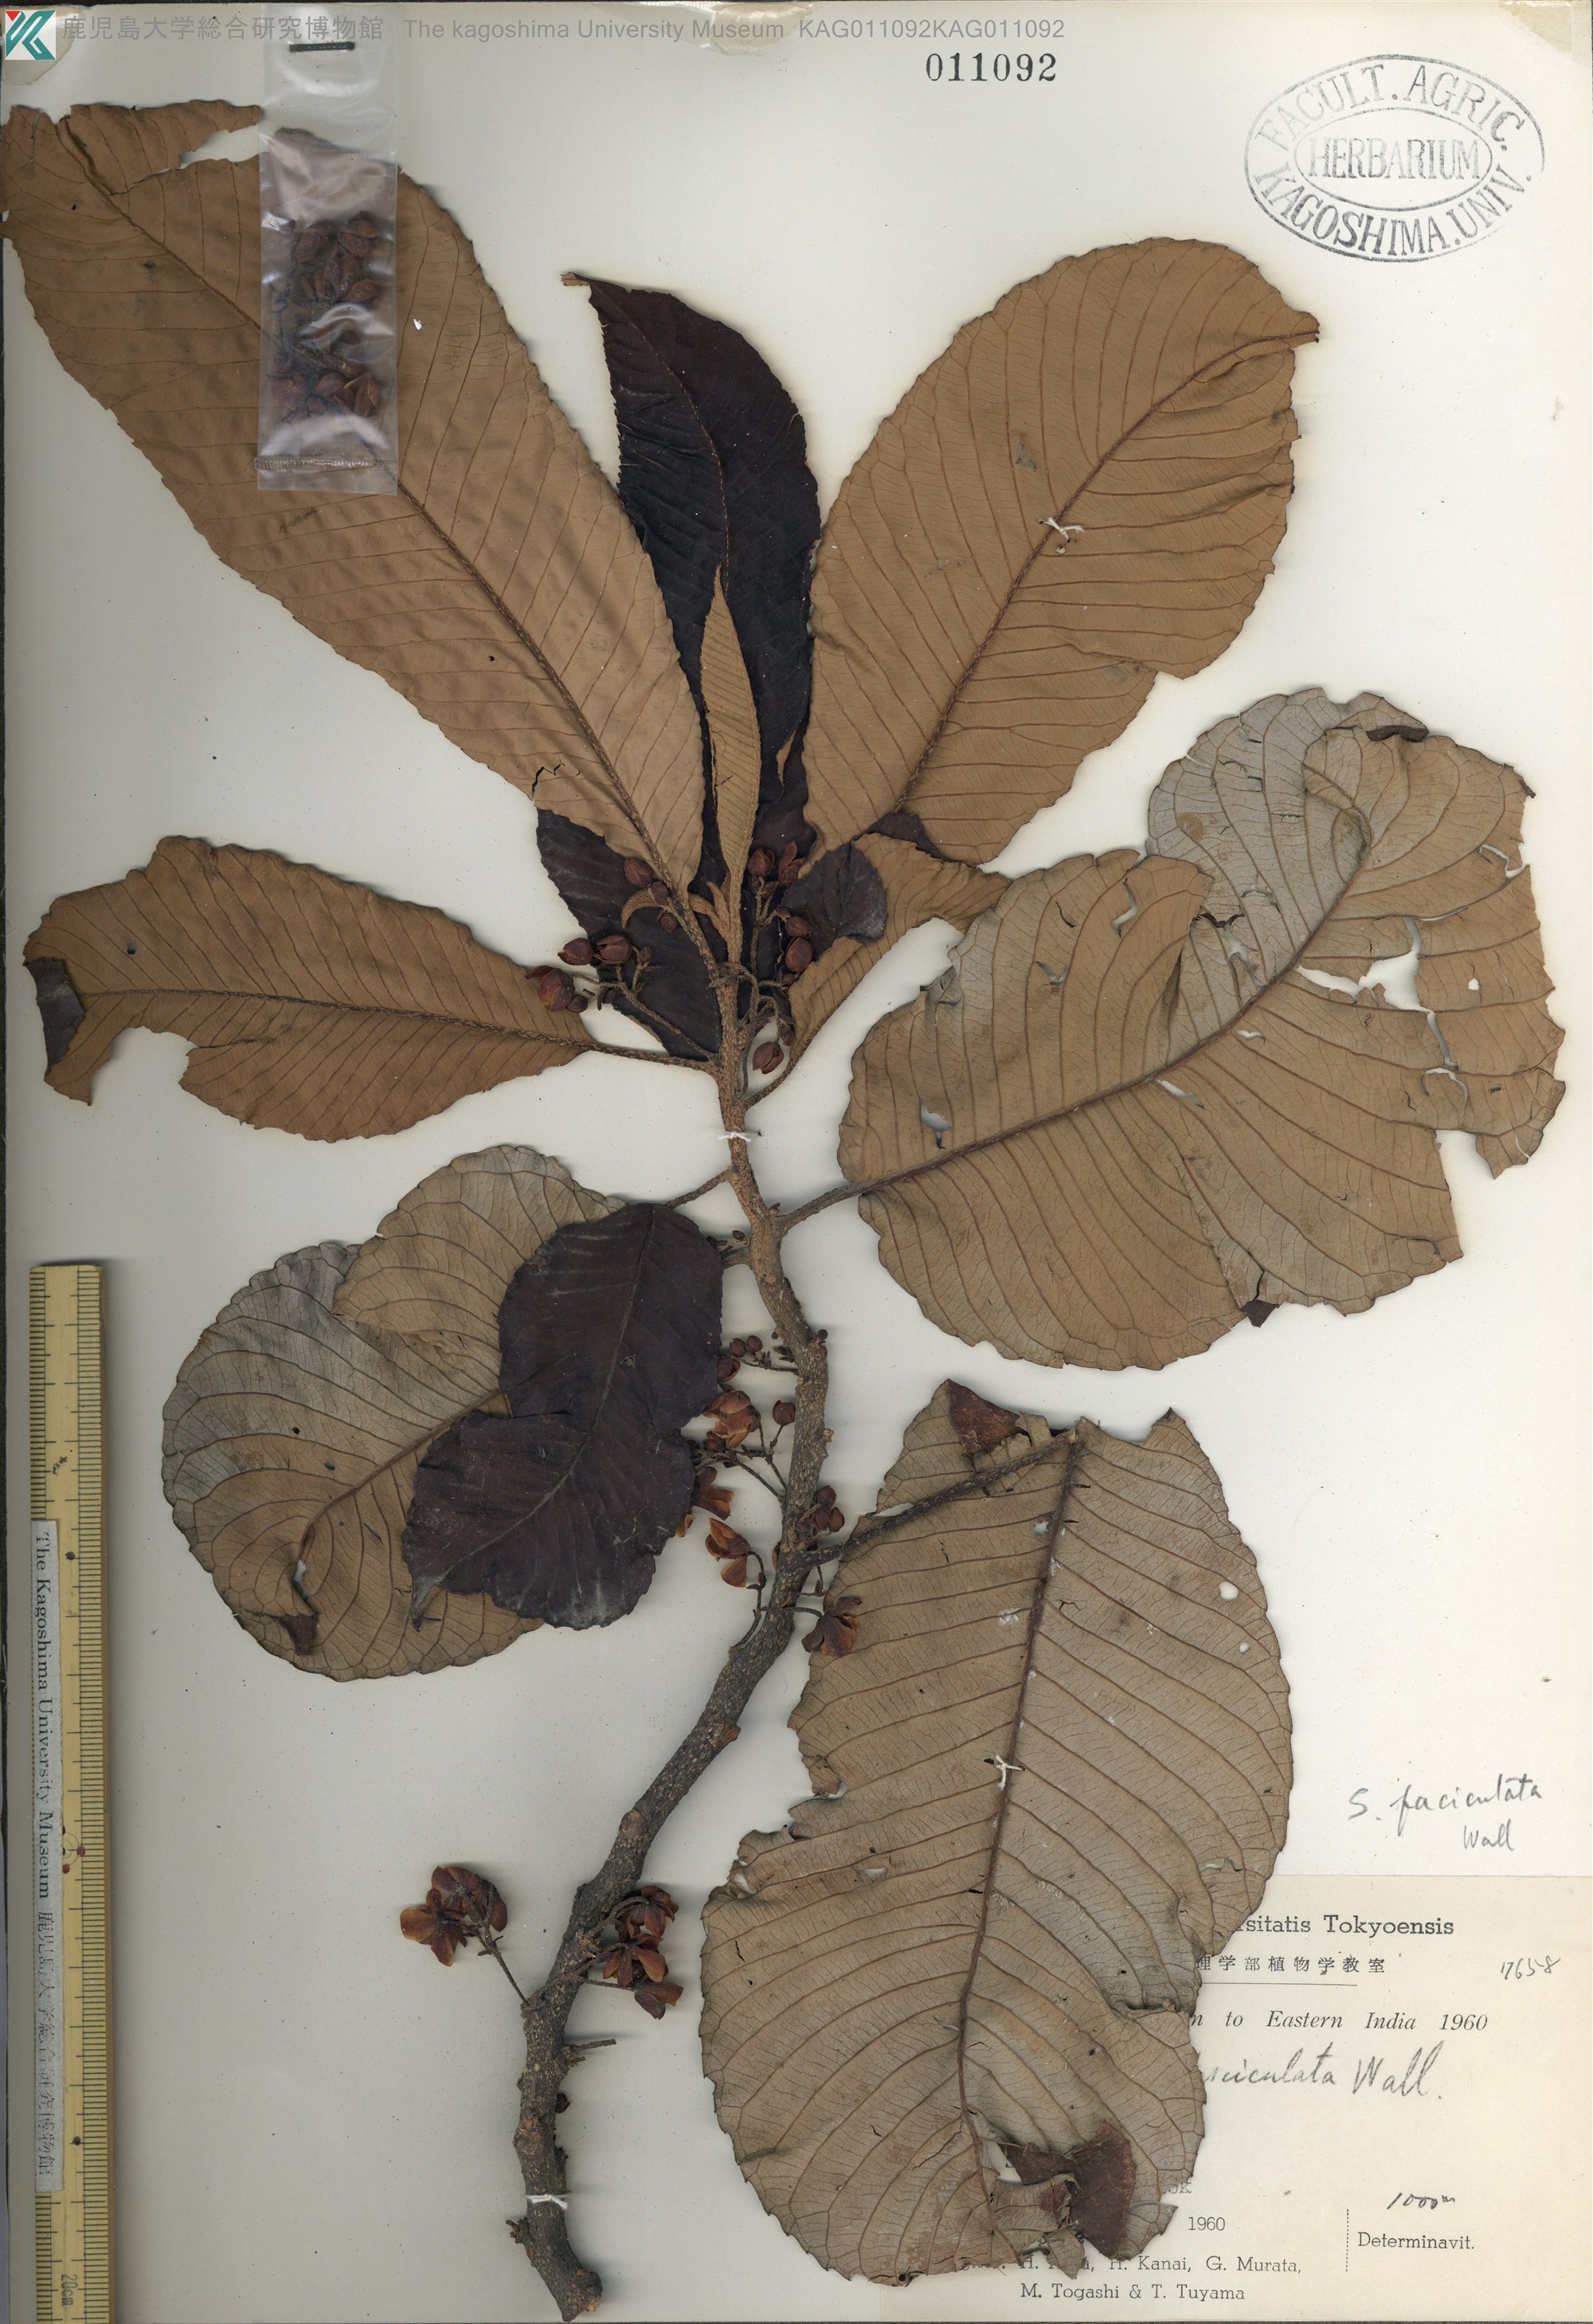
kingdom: Plantae
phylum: Tracheophyta
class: Magnoliopsida
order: Ericales
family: Actinidiaceae
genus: Saurauia
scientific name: Saurauia fasciculata
